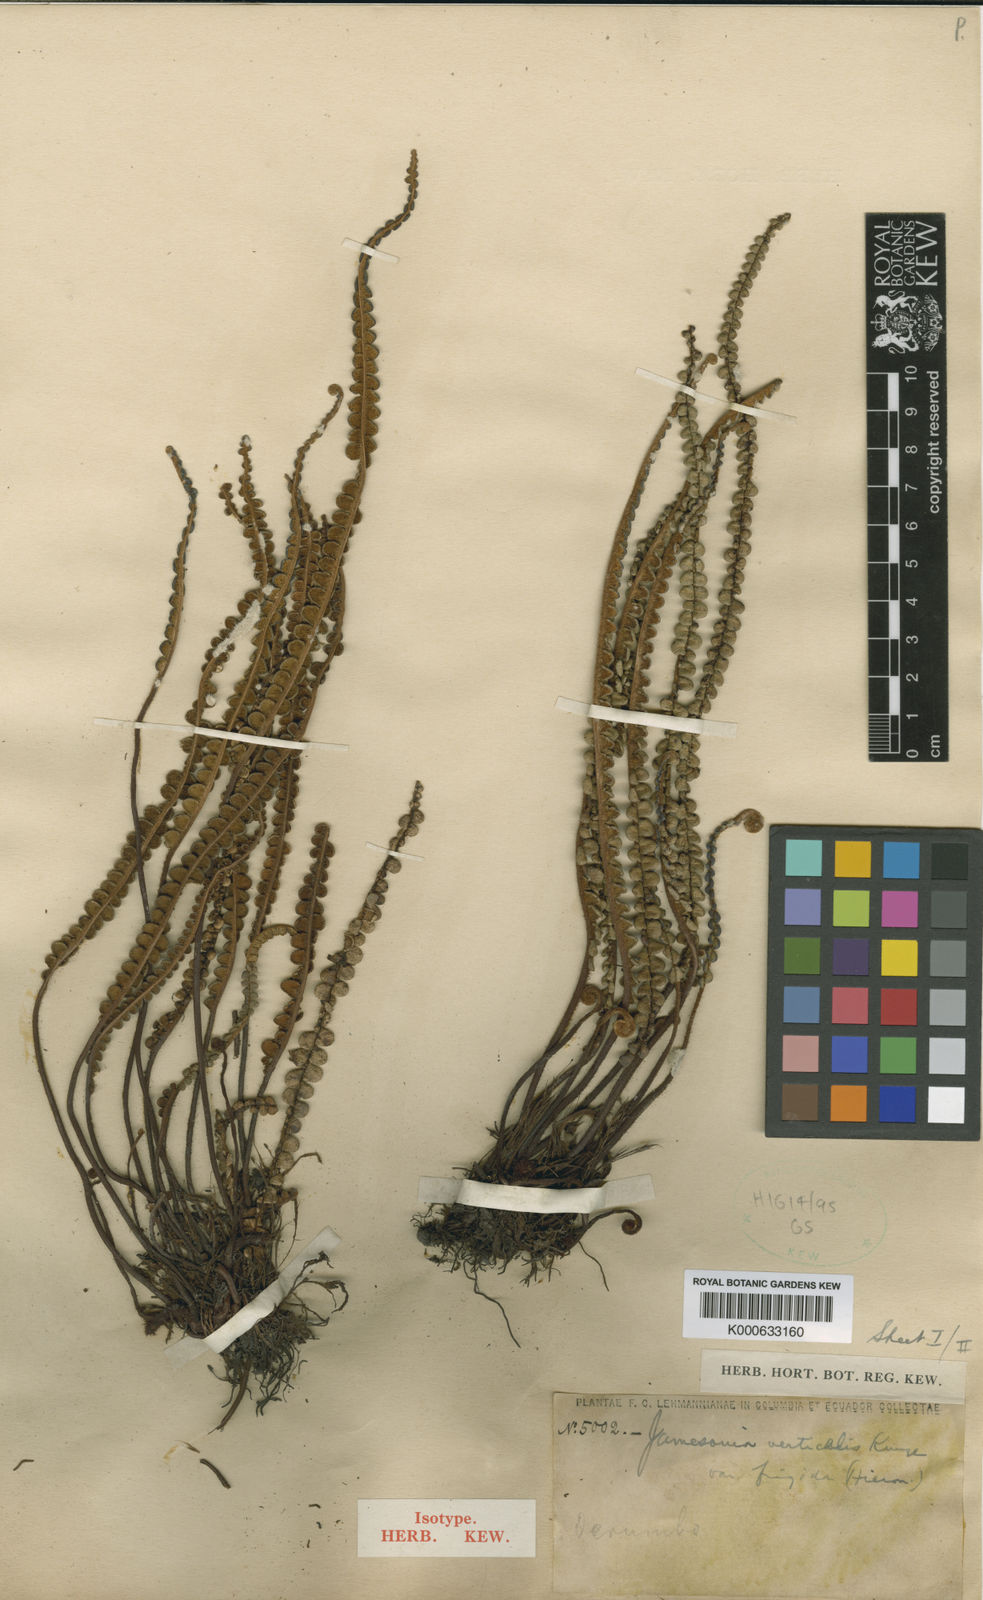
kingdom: Plantae
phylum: Tracheophyta
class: Polypodiopsida
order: Polypodiales
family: Pteridaceae
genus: Jamesonia
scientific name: Jamesonia verticalis
